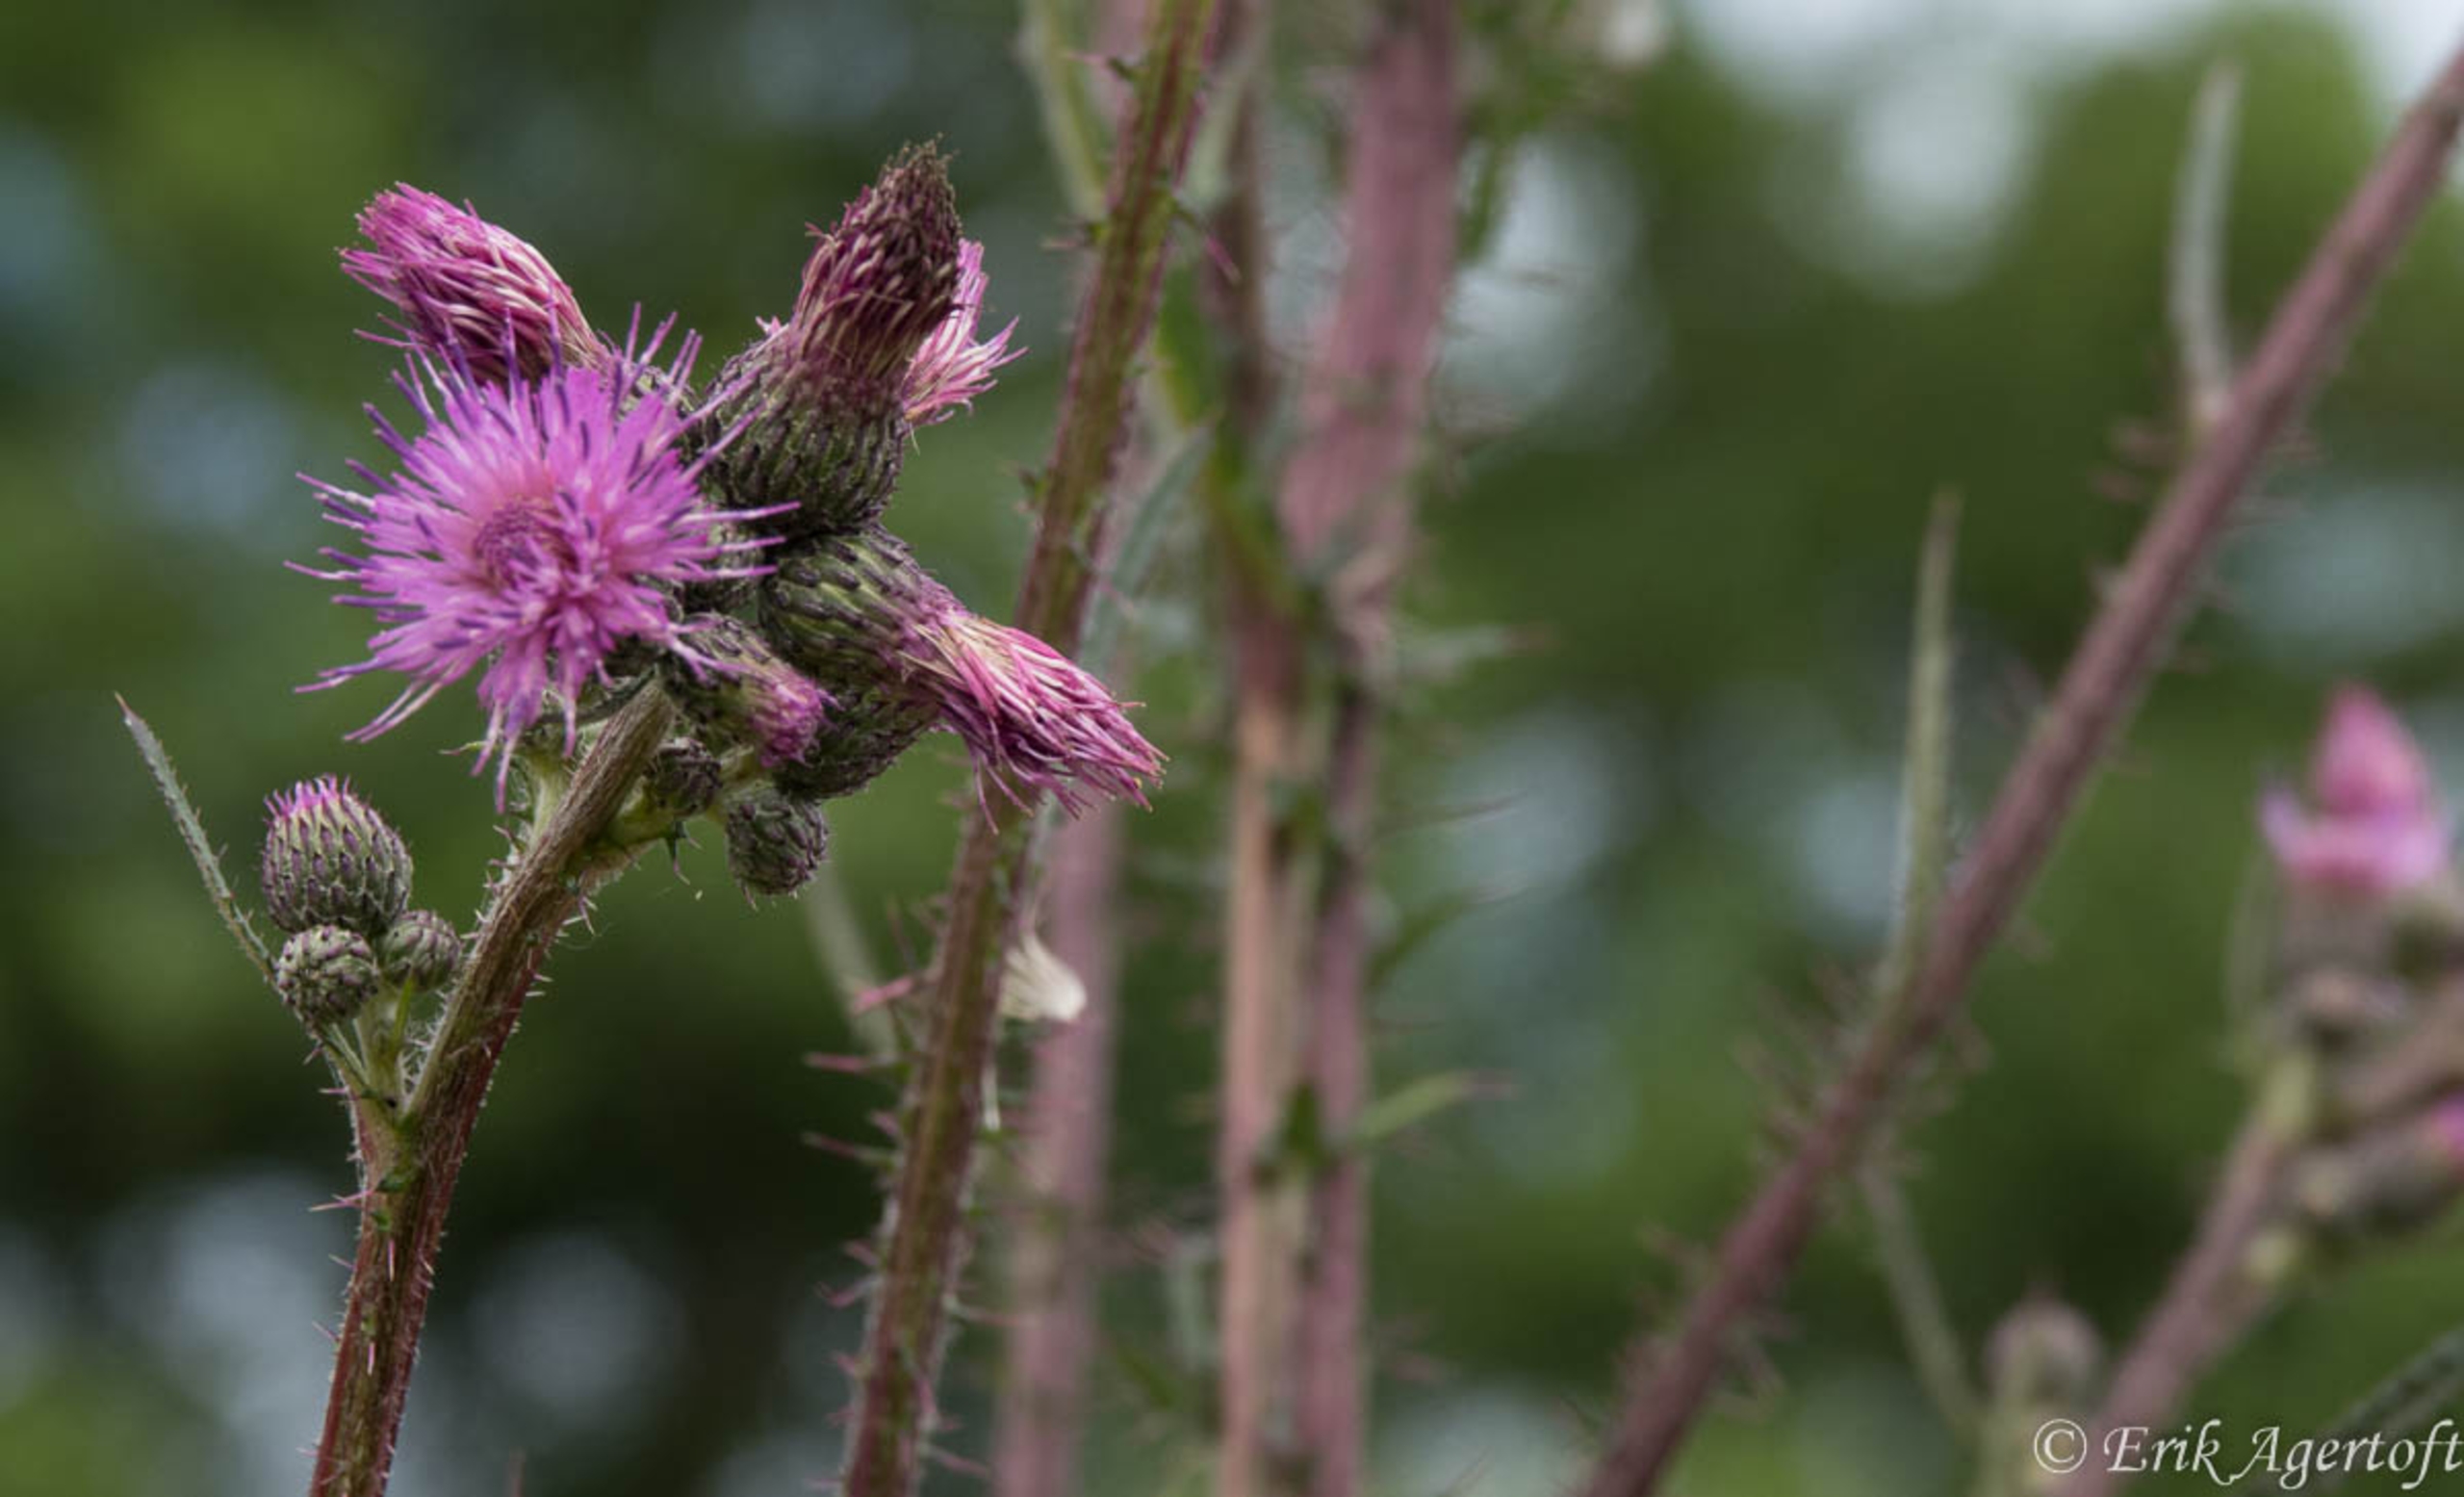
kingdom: Plantae
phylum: Tracheophyta
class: Magnoliopsida
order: Asterales
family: Asteraceae
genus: Cirsium
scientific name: Cirsium palustre
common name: Kær-tidsel
